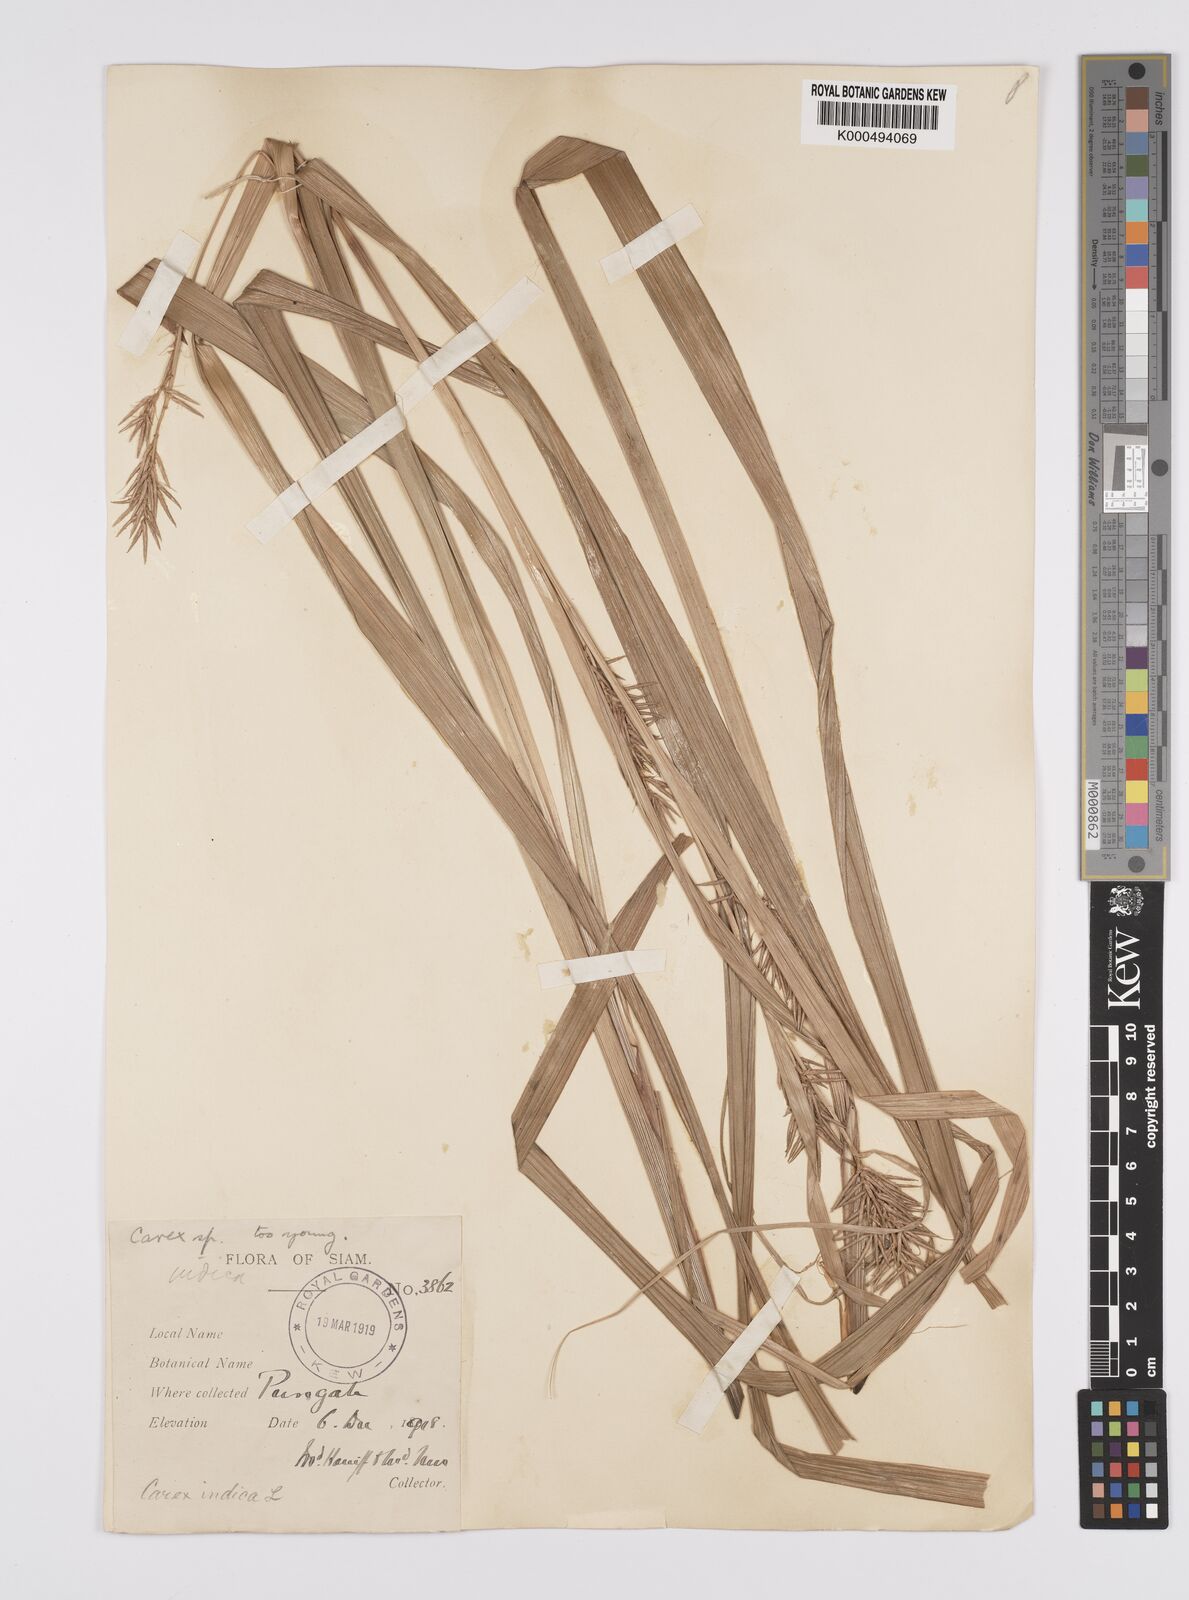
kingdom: Plantae
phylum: Tracheophyta
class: Liliopsida
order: Poales
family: Cyperaceae
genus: Carex
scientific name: Carex indica
